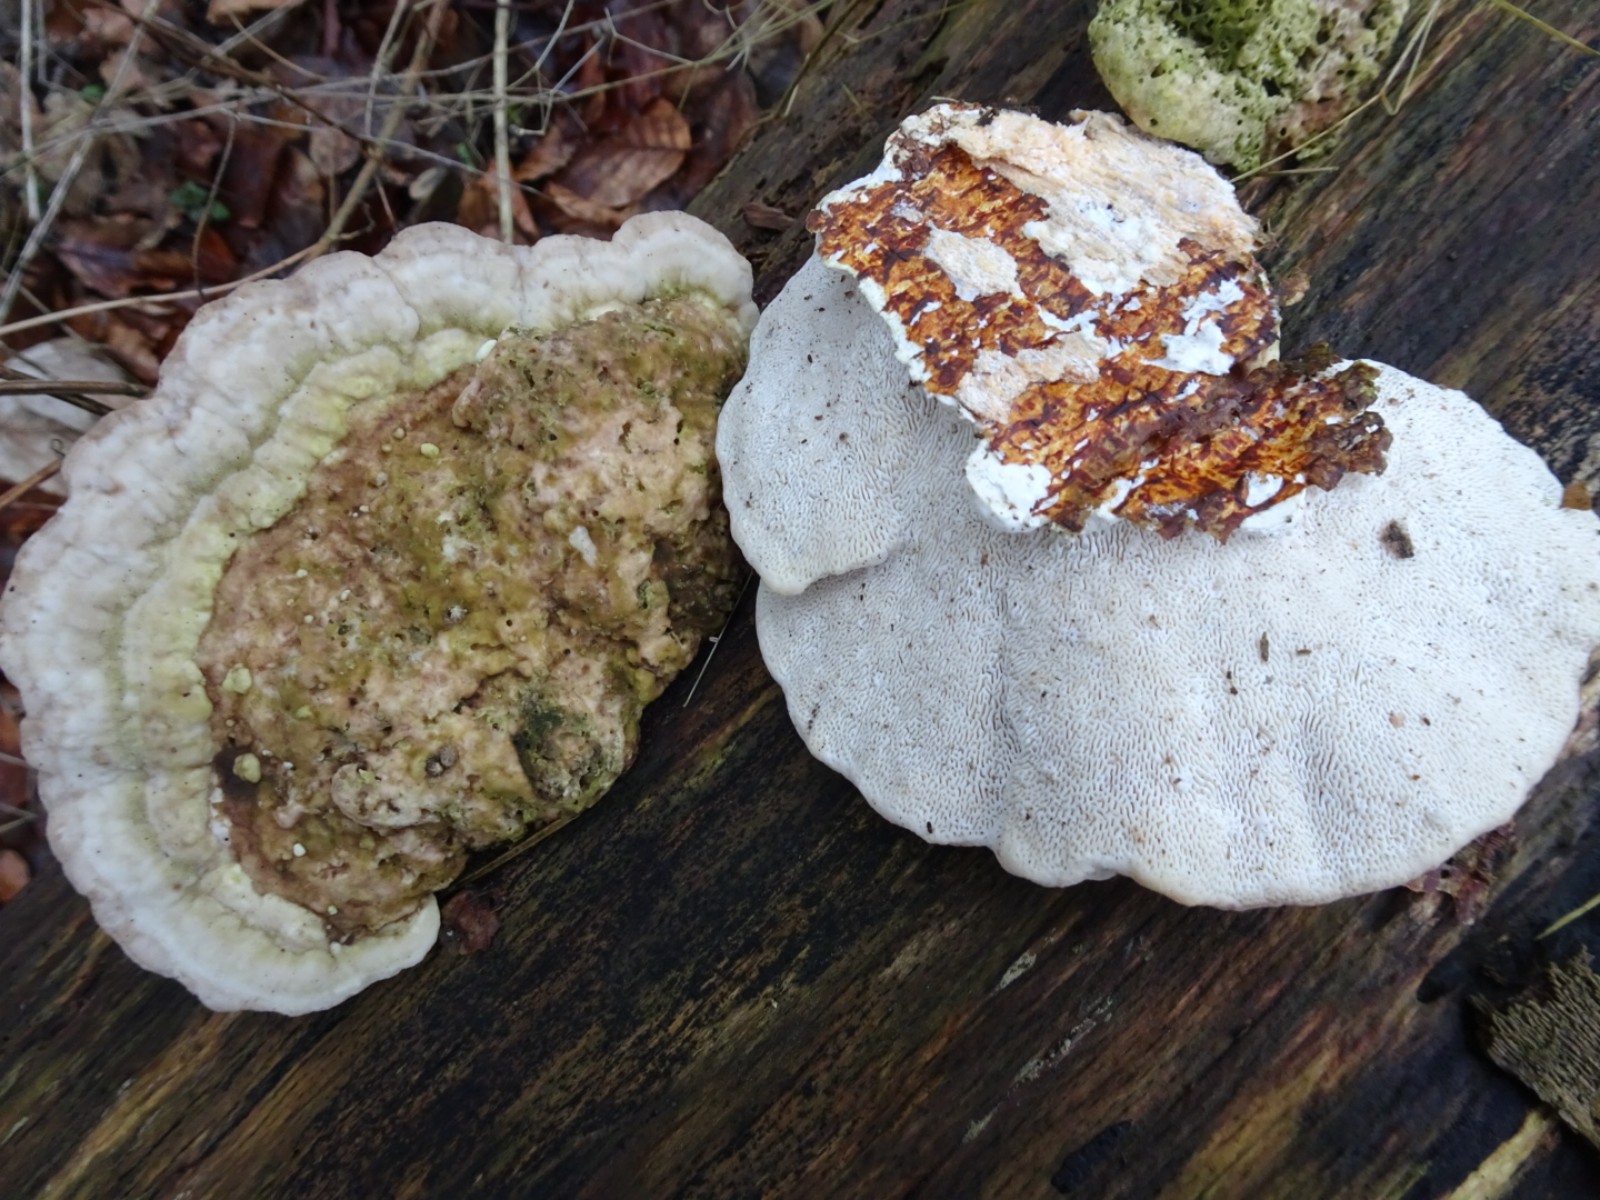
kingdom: Fungi
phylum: Basidiomycota
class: Agaricomycetes
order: Polyporales
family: Polyporaceae
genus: Trametes
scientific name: Trametes gibbosa
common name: puklet læderporesvamp
